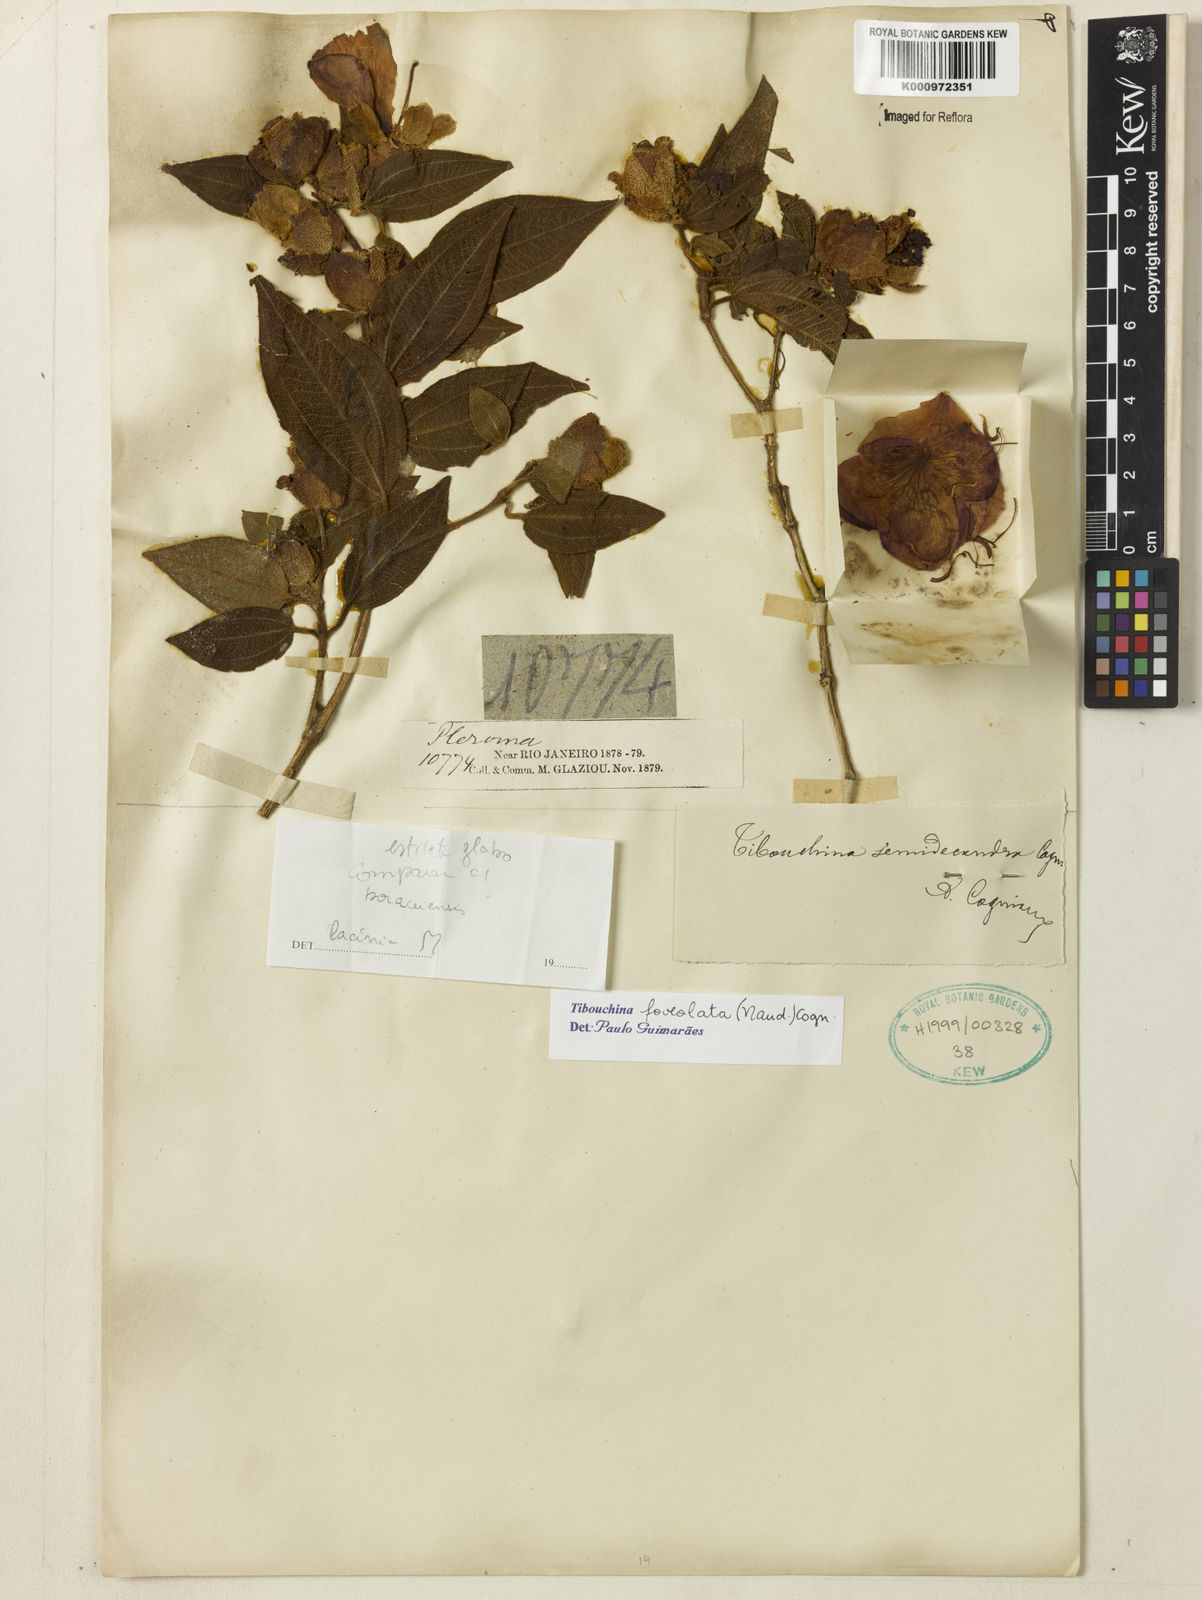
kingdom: Plantae
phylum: Tracheophyta
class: Magnoliopsida
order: Myrtales
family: Melastomataceae
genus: Pleroma
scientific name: Pleroma foveolatum
